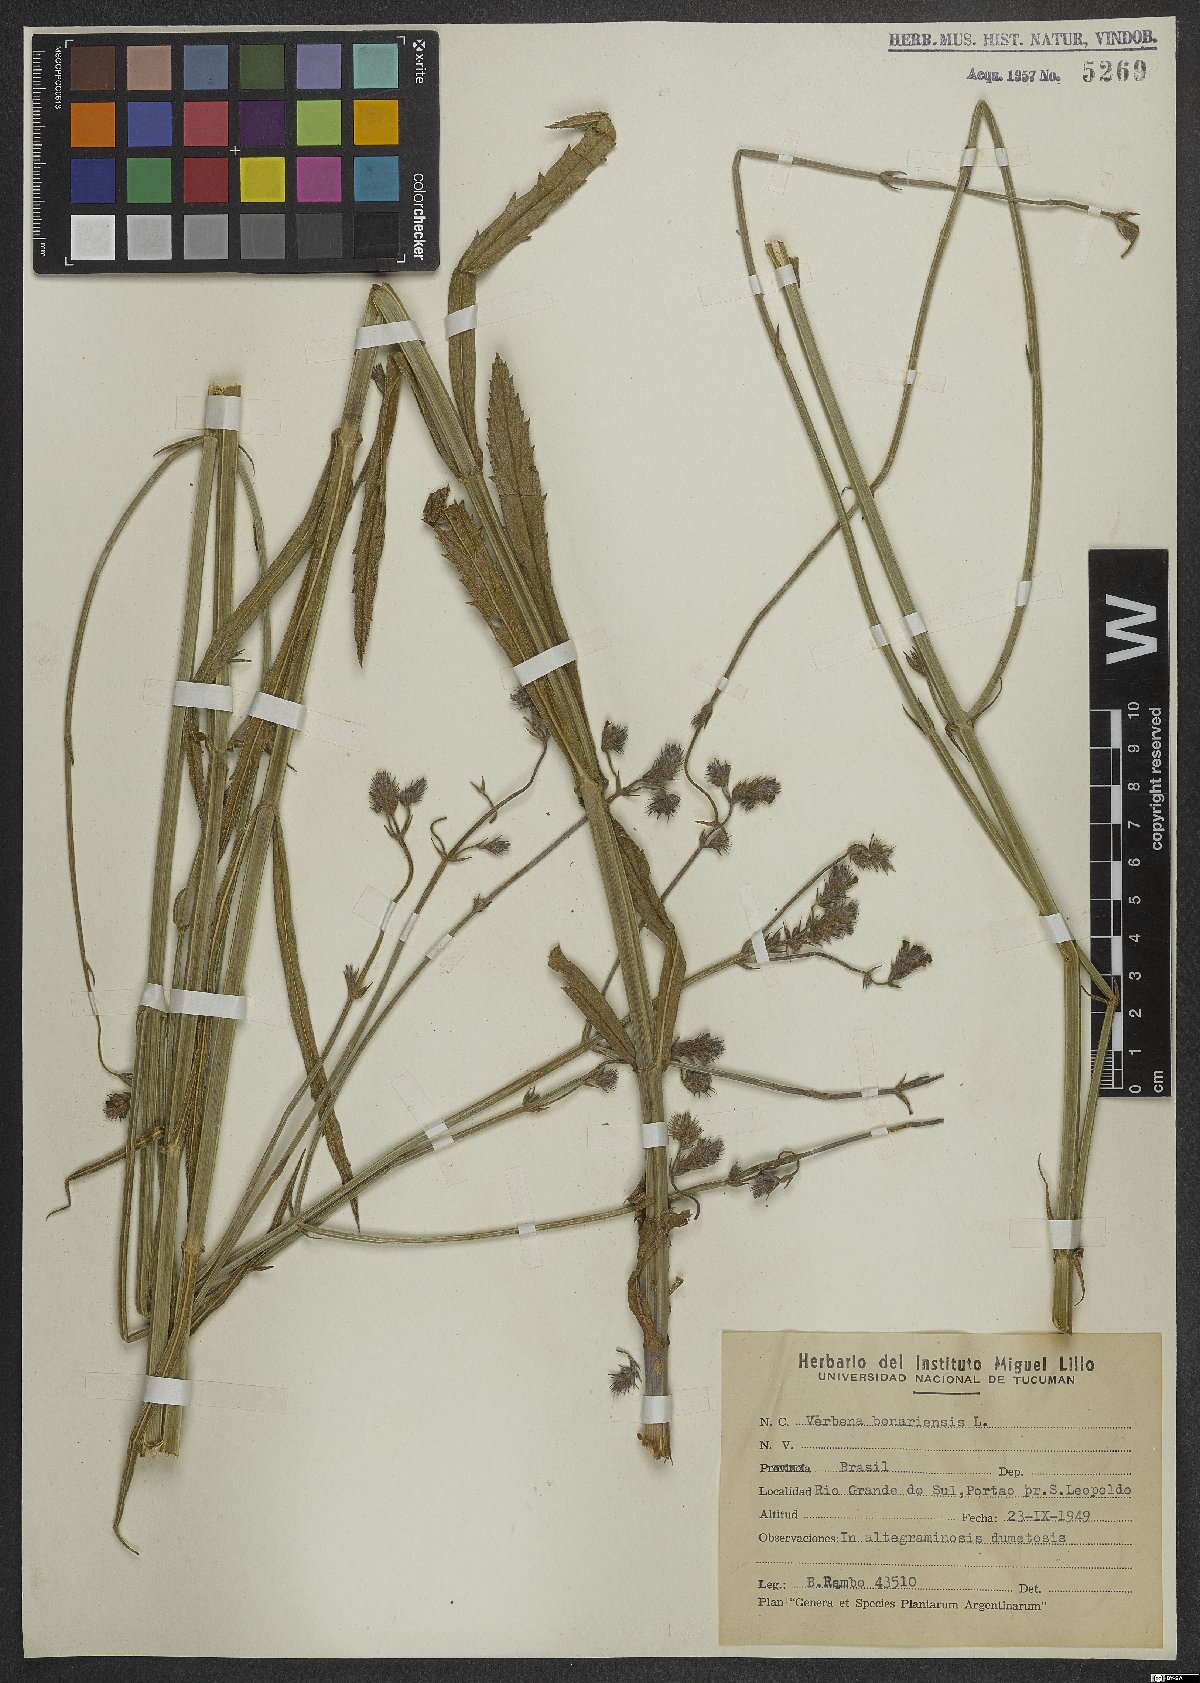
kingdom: Plantae
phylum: Tracheophyta
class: Magnoliopsida
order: Lamiales
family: Verbenaceae
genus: Verbena
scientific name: Verbena bonariensis
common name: Purpletop vervain
